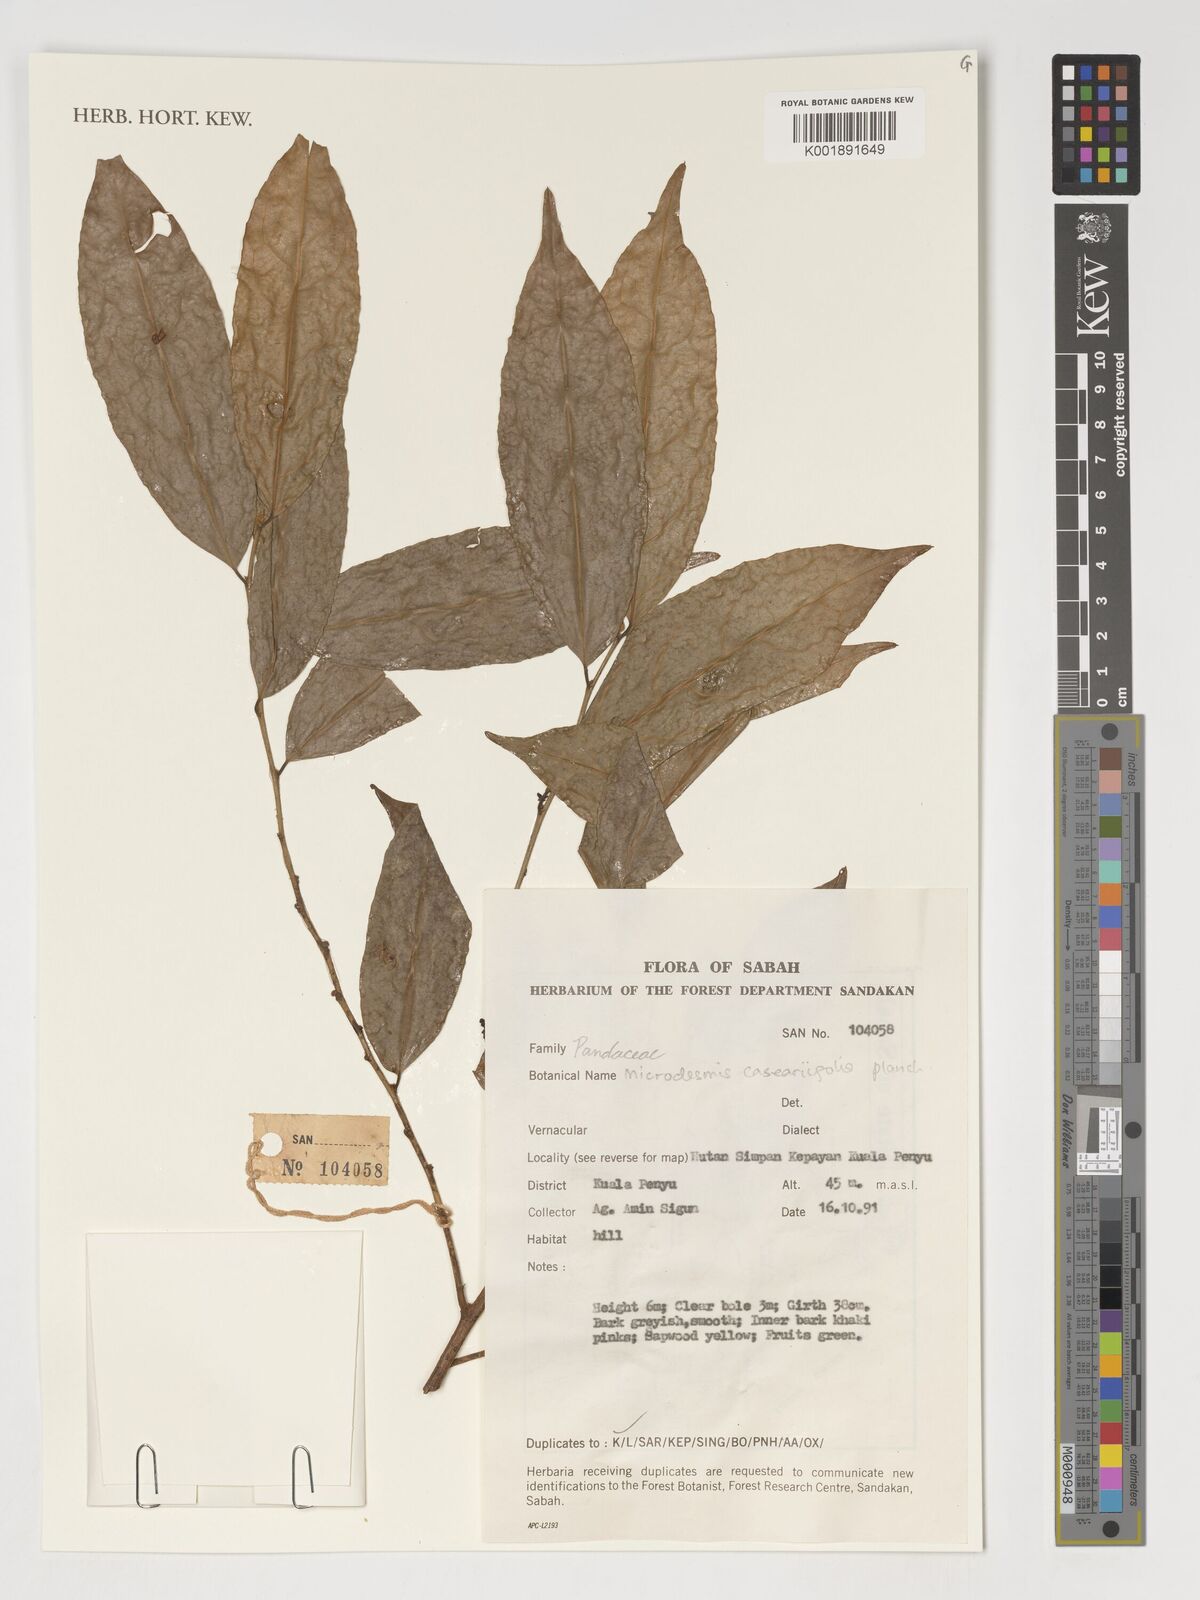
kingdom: Plantae
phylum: Tracheophyta
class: Magnoliopsida
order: Malpighiales
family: Pandaceae
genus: Microdesmis
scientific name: Microdesmis caseariifolia
